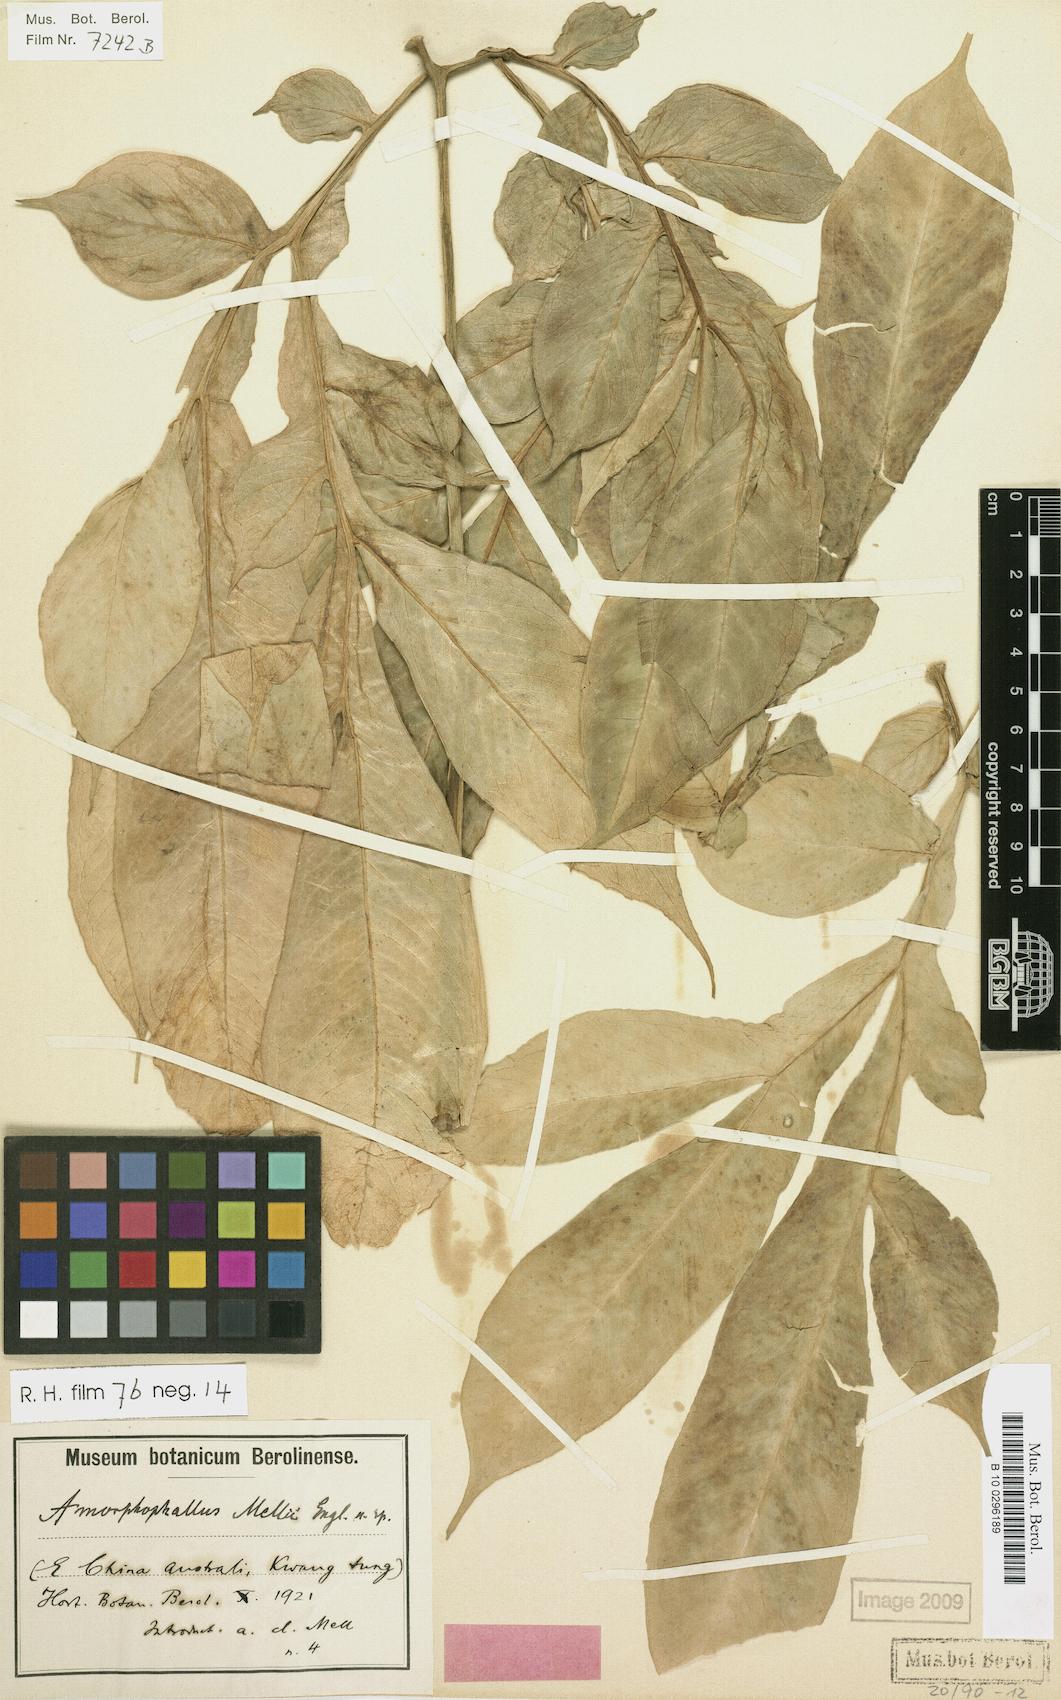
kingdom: Plantae
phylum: Tracheophyta
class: Liliopsida
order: Alismatales
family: Araceae
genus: Amorphophallus
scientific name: Amorphophallus dunnii
